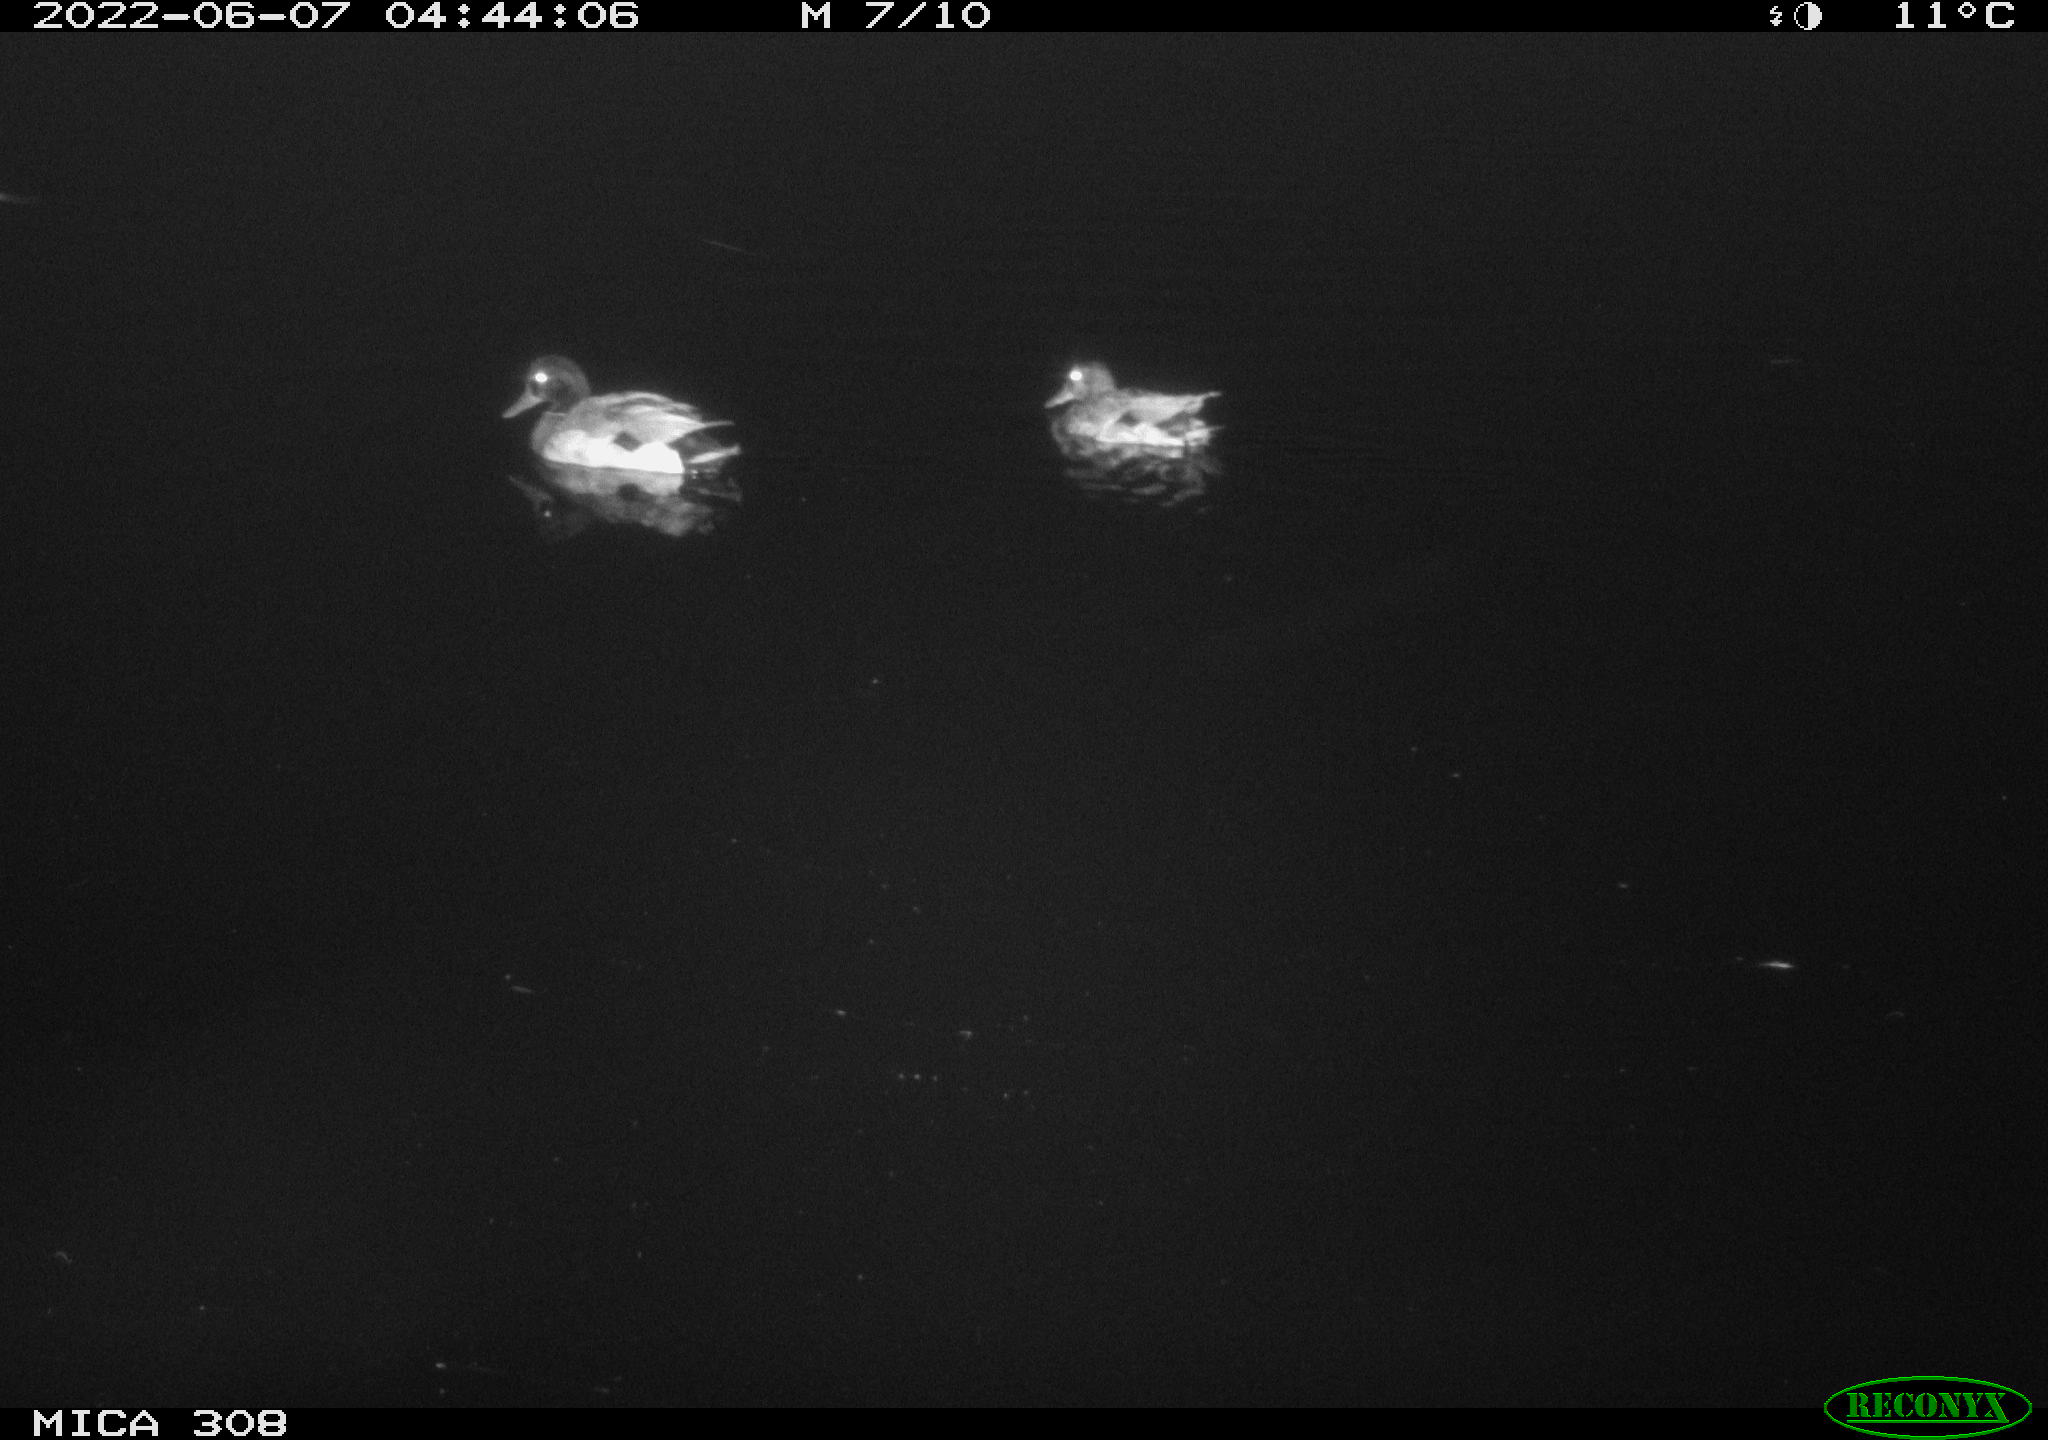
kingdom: Animalia
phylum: Chordata
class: Aves
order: Anseriformes
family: Anatidae
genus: Anas
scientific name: Anas platyrhynchos
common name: Mallard
